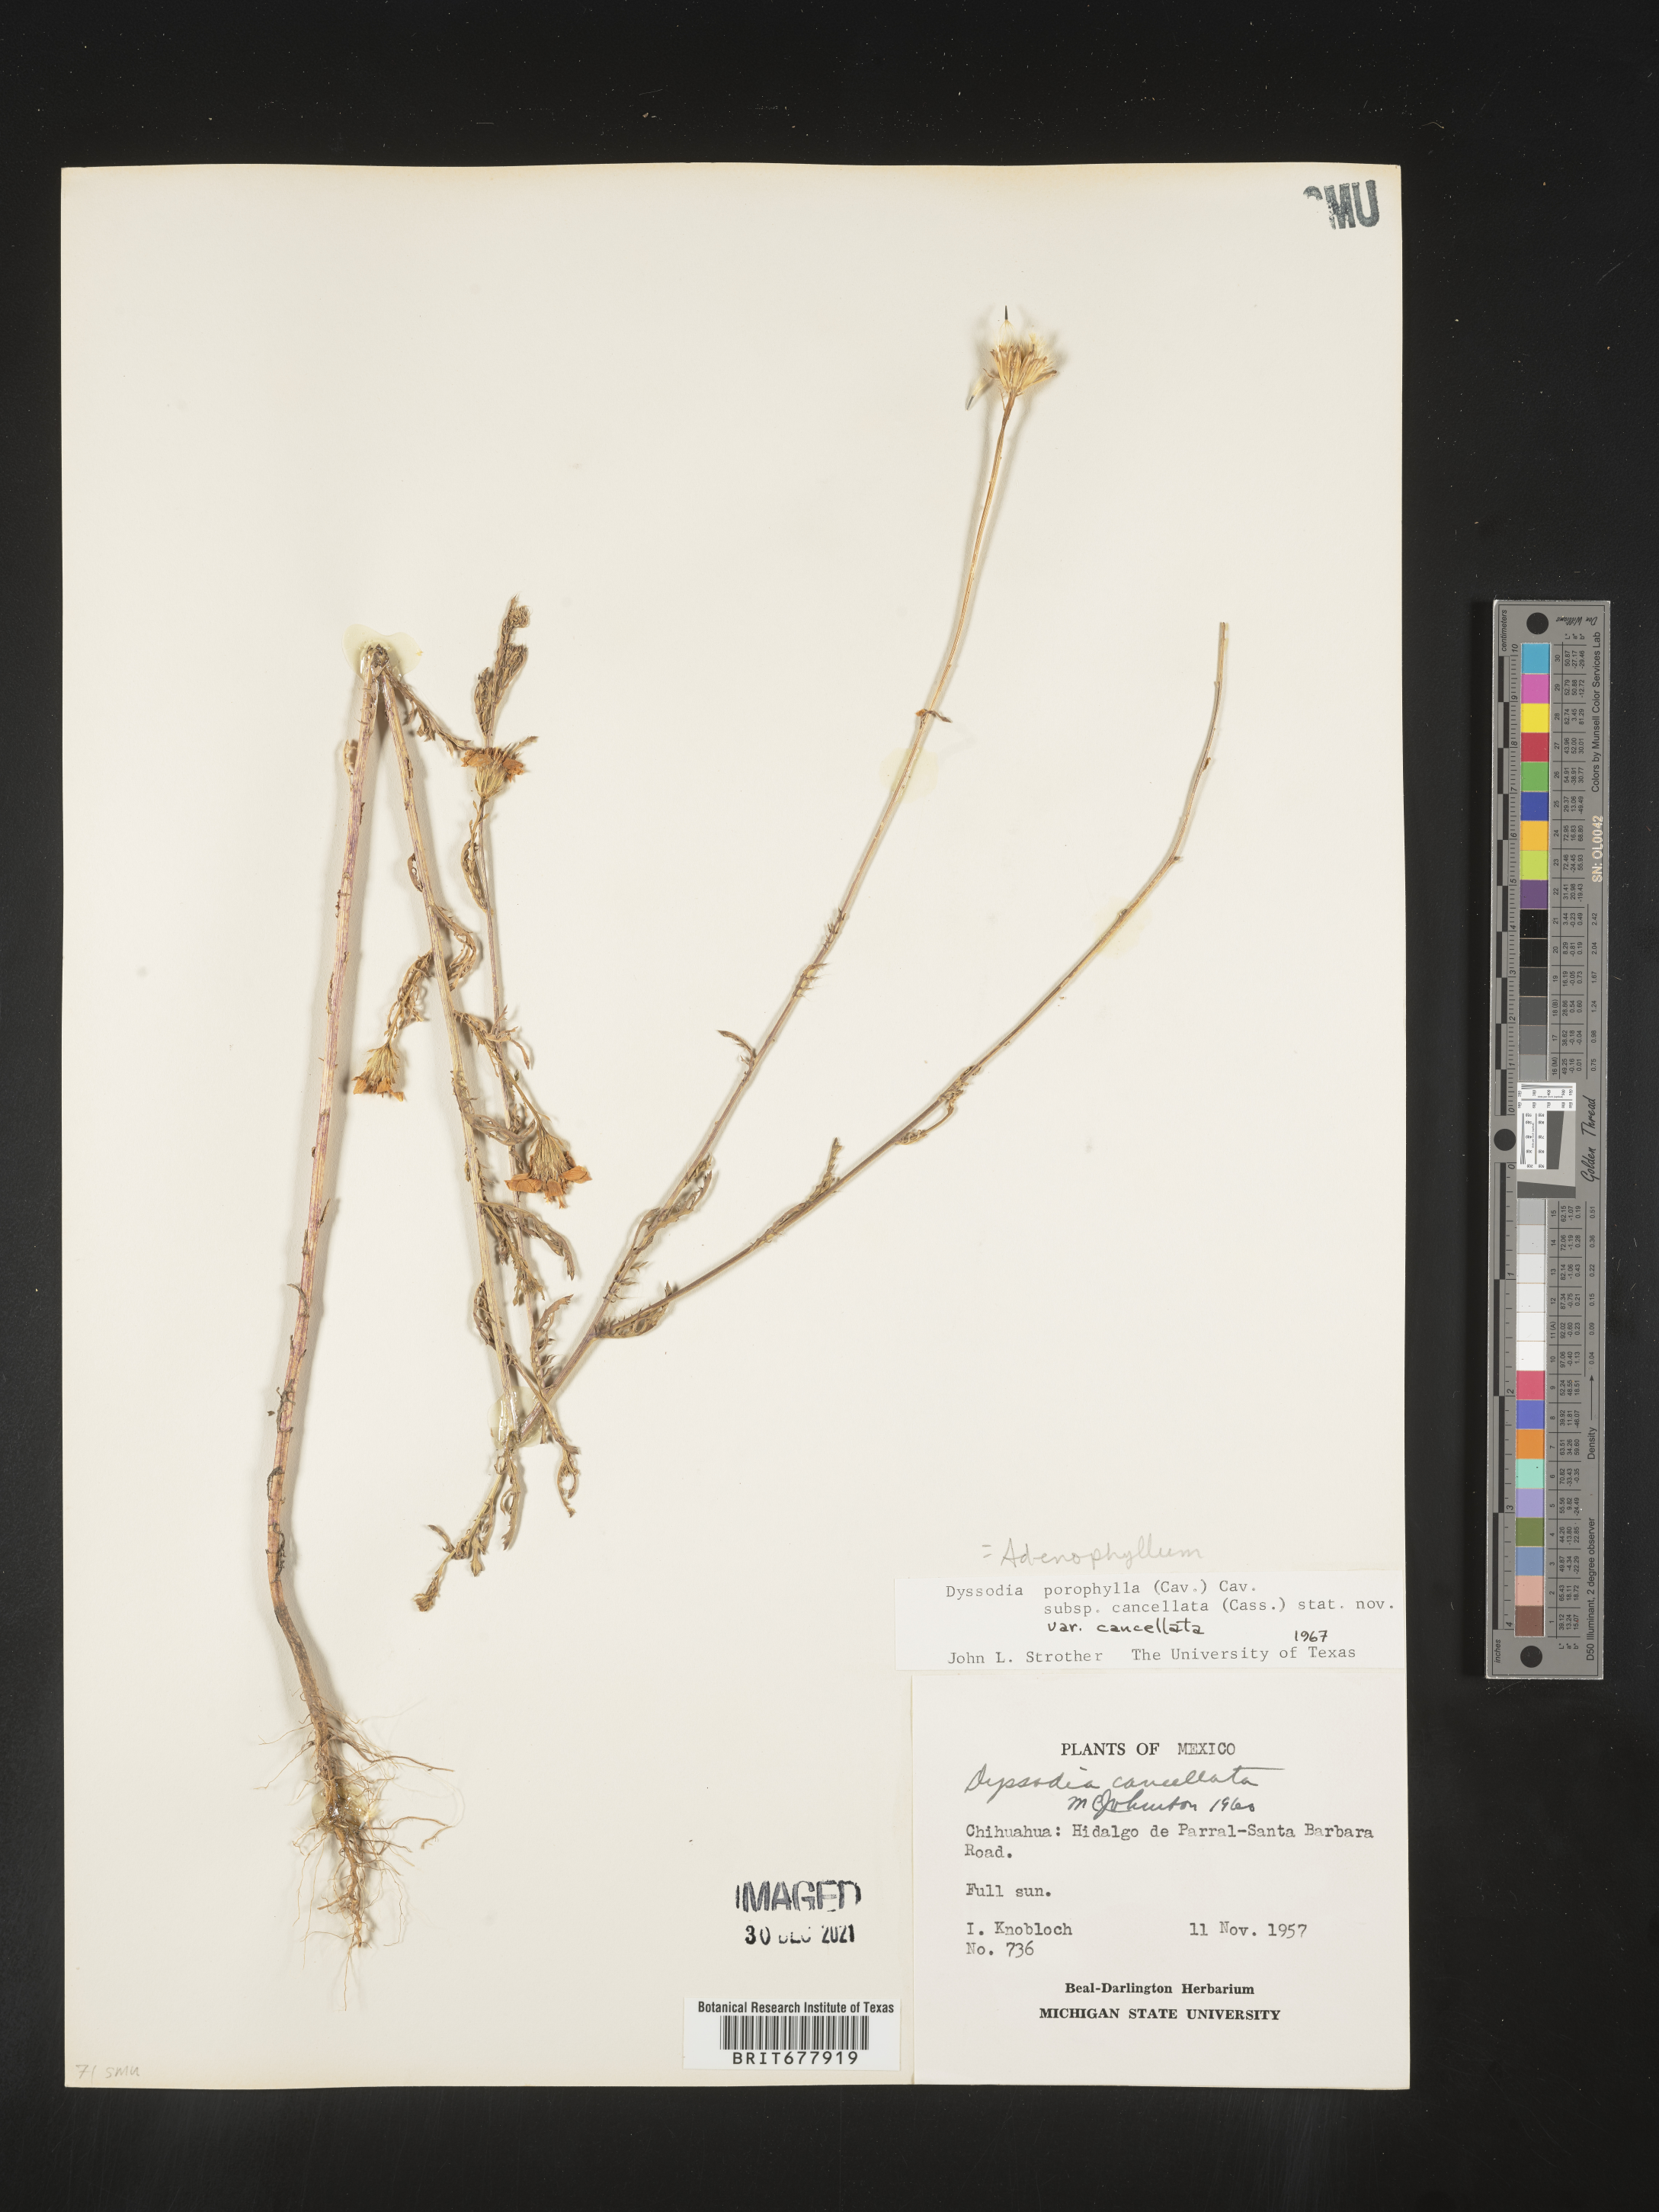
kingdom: Plantae
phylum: Tracheophyta
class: Magnoliopsida
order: Asterales
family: Asteraceae
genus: Adenophyllum
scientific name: Adenophyllum porophyllum
